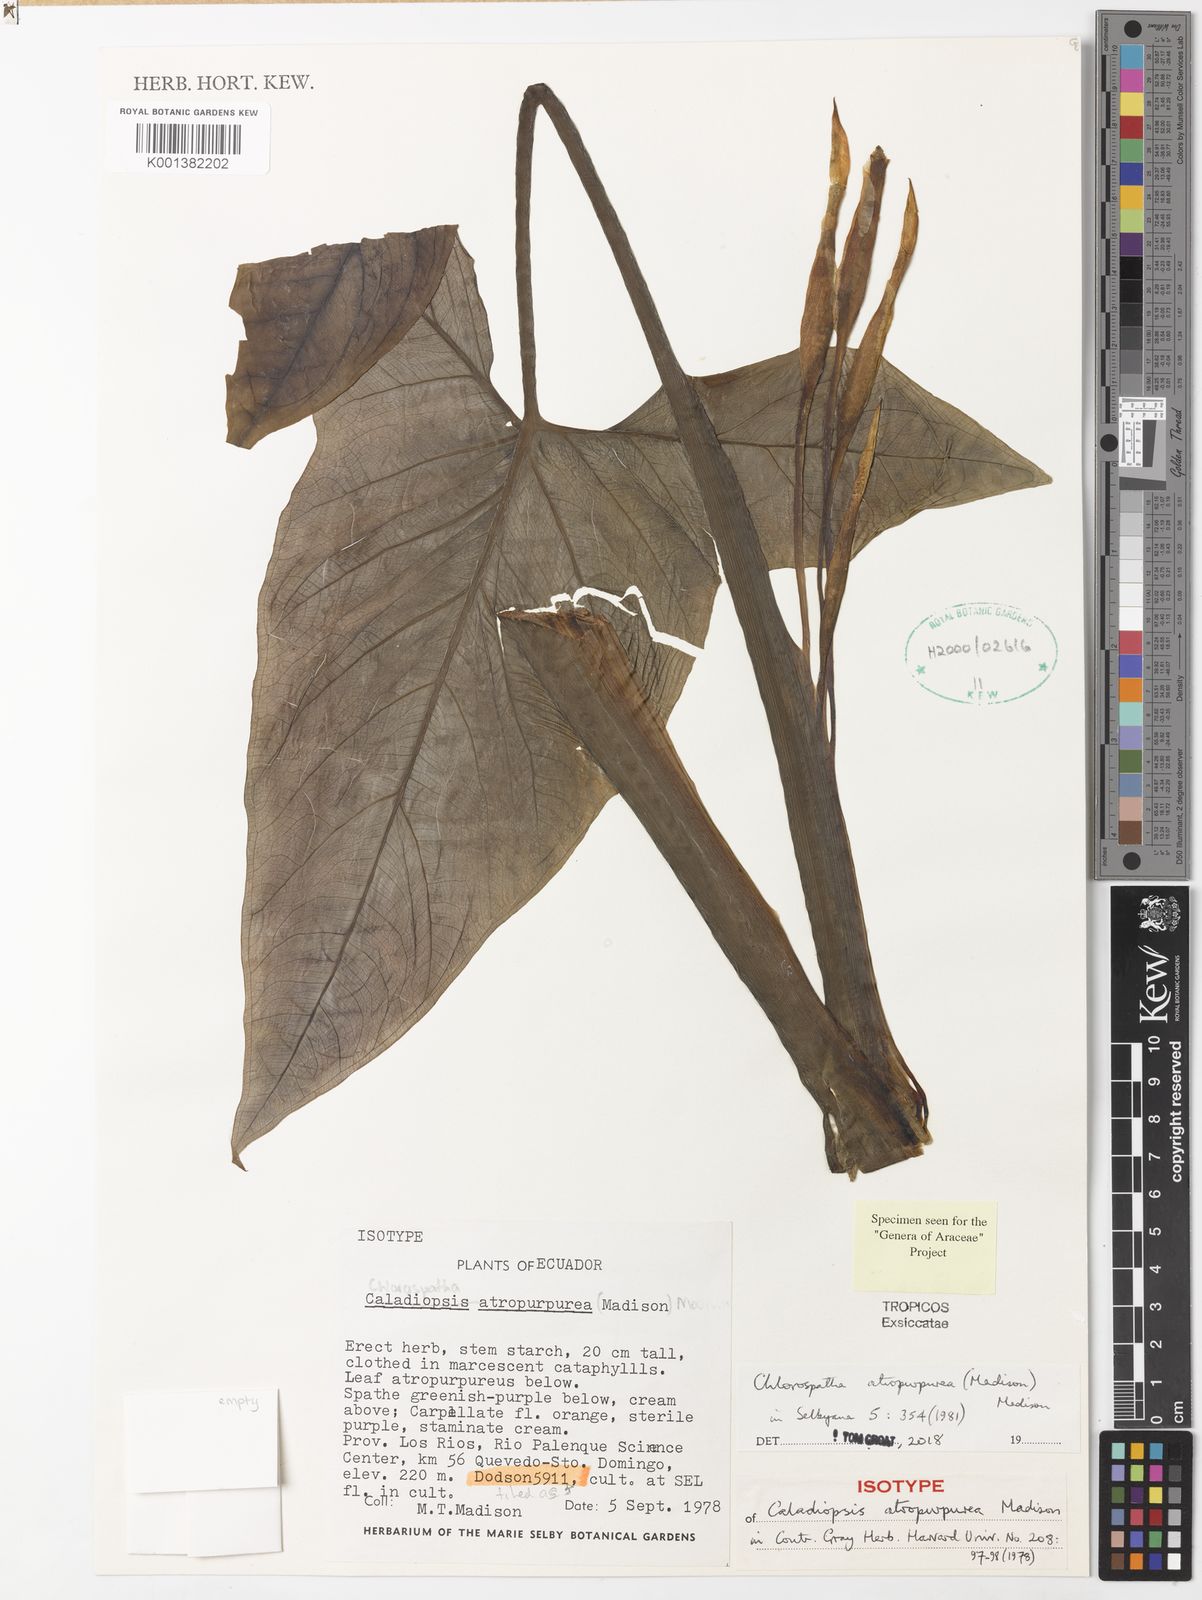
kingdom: Plantae
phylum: Tracheophyta
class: Liliopsida
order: Alismatales
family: Araceae
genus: Chlorospatha
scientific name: Chlorospatha atropurpurea
